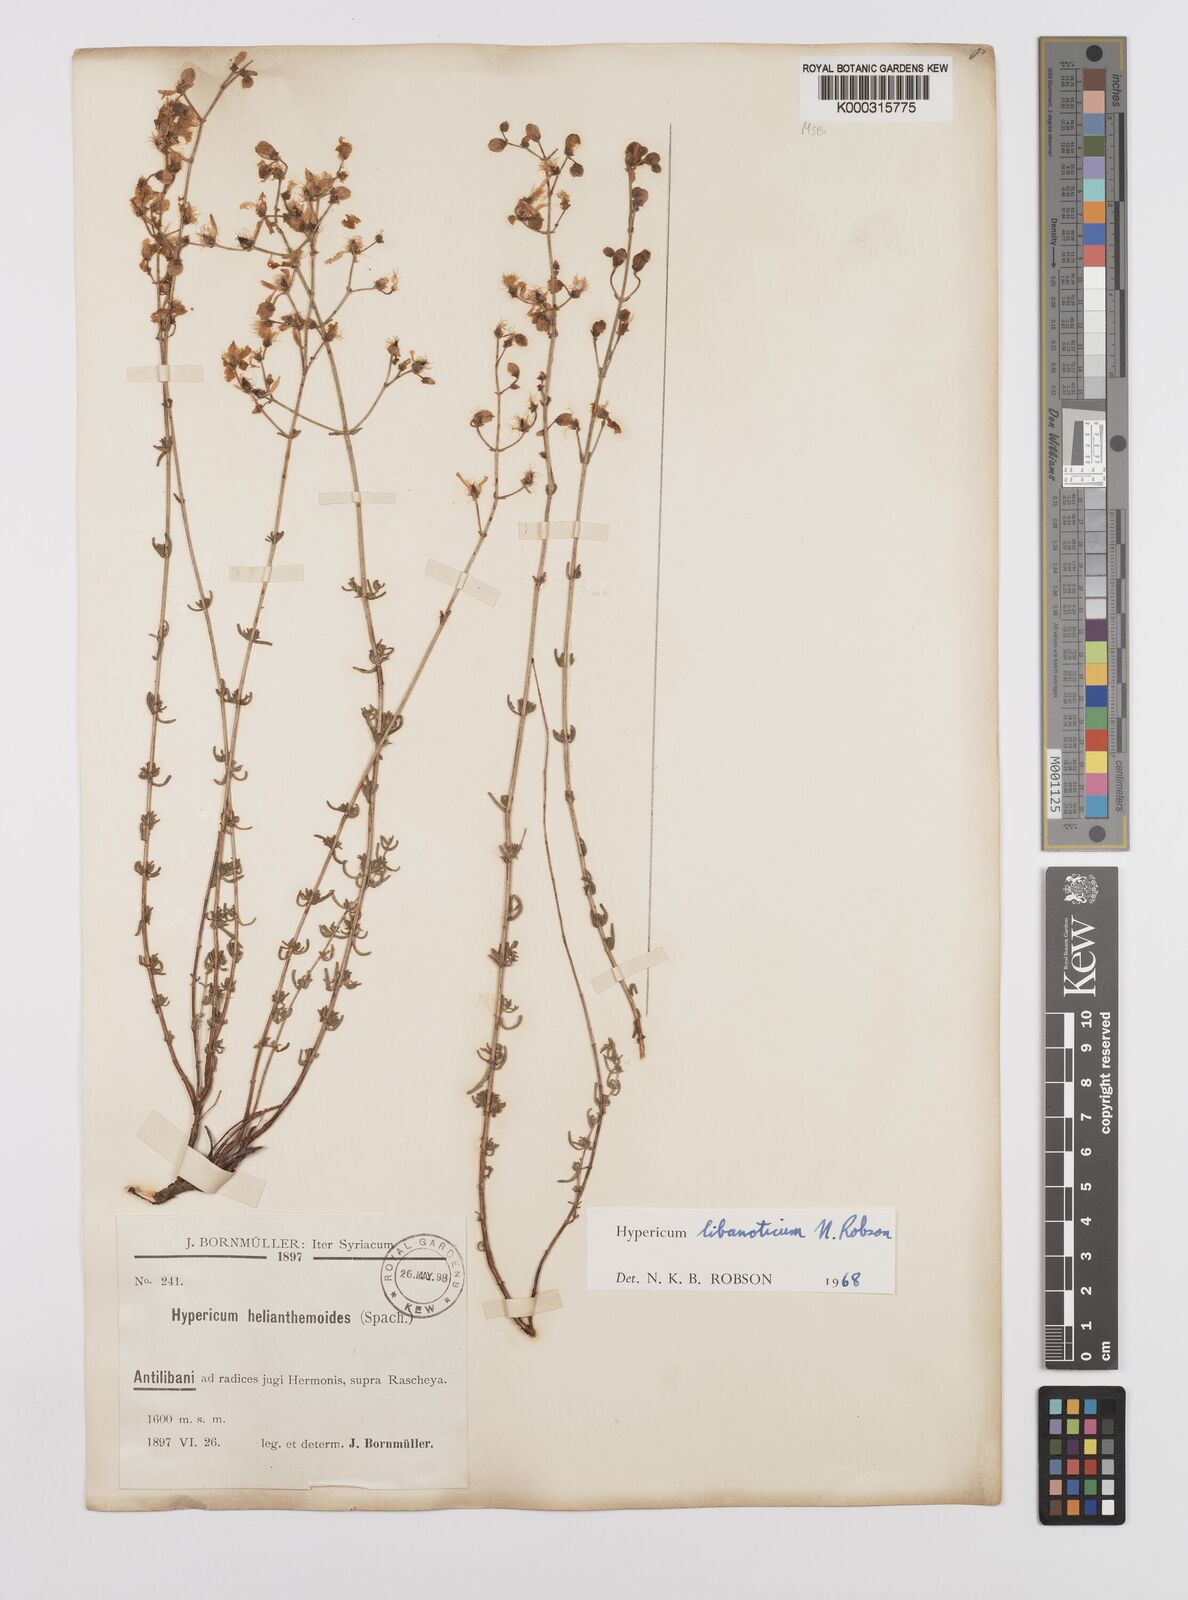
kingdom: Plantae
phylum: Tracheophyta
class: Magnoliopsida
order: Malpighiales
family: Hypericaceae
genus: Hypericum
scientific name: Hypericum libanoticum
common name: Lebanon saint john’s wort
